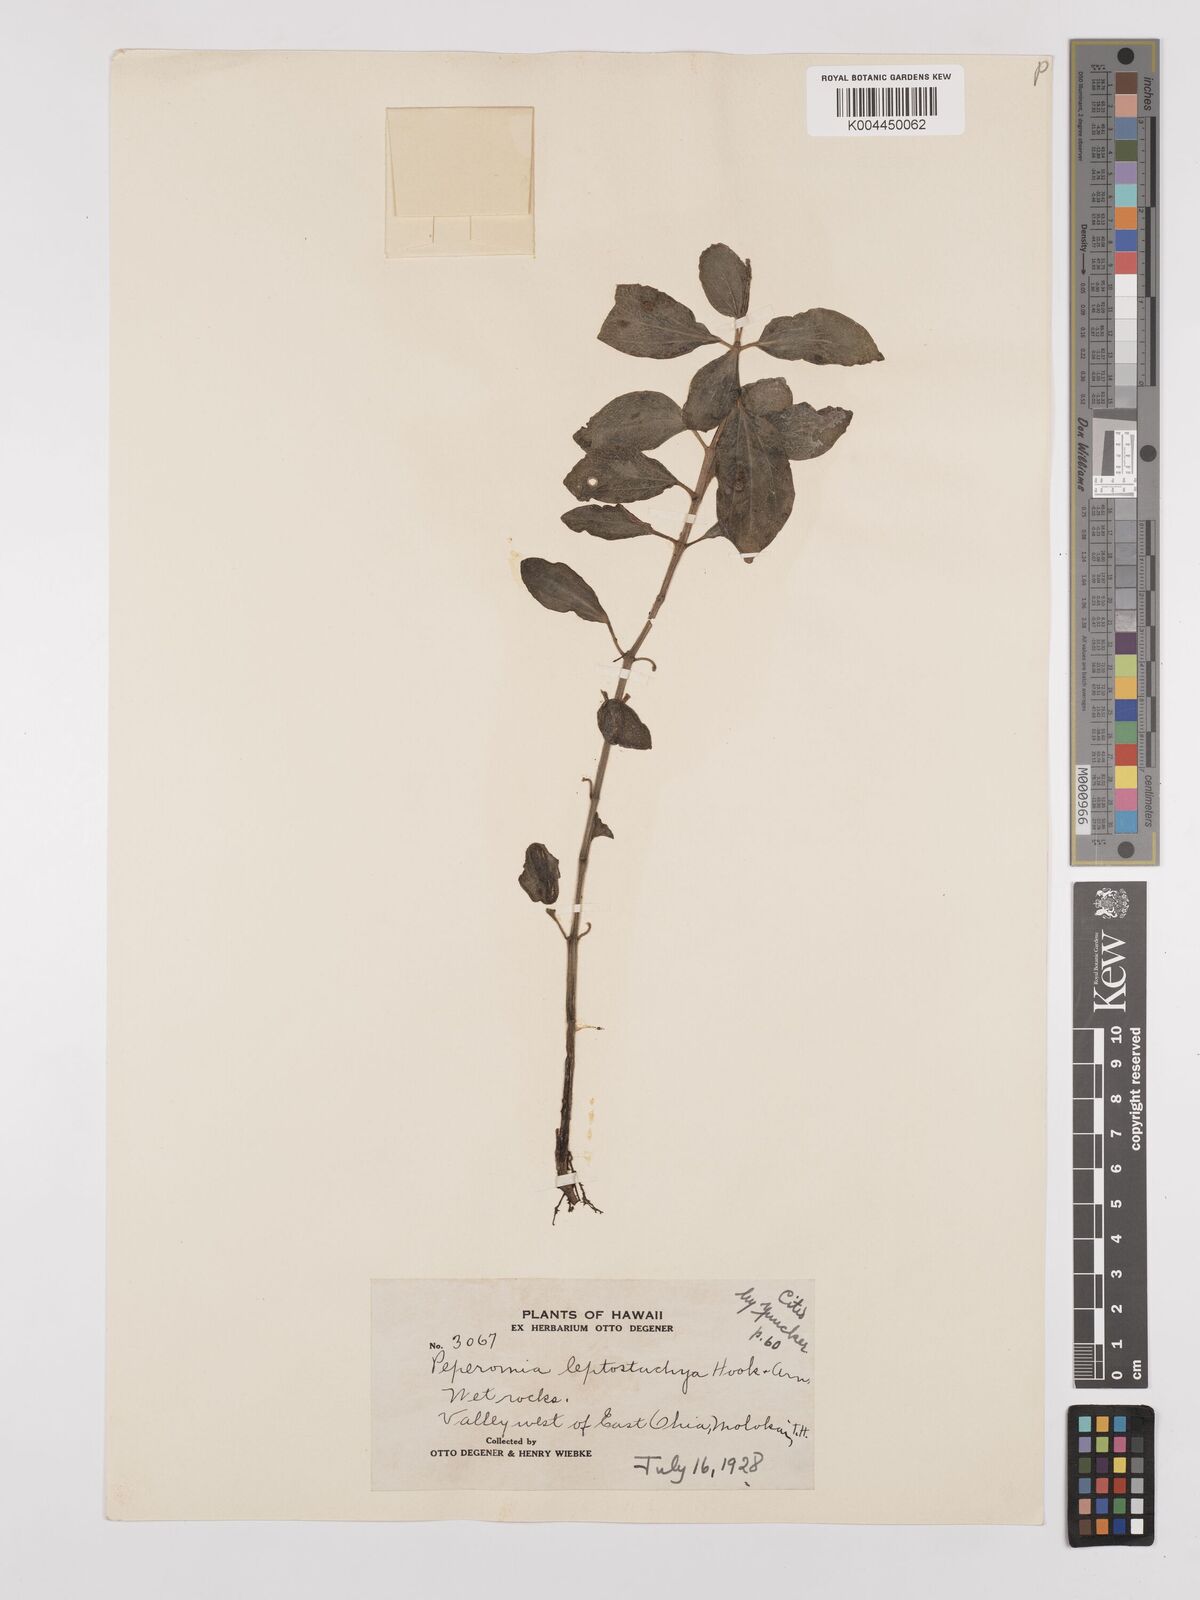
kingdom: Plantae
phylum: Tracheophyta
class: Magnoliopsida
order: Piperales
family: Piperaceae
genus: Peperomia
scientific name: Peperomia leptostachya
